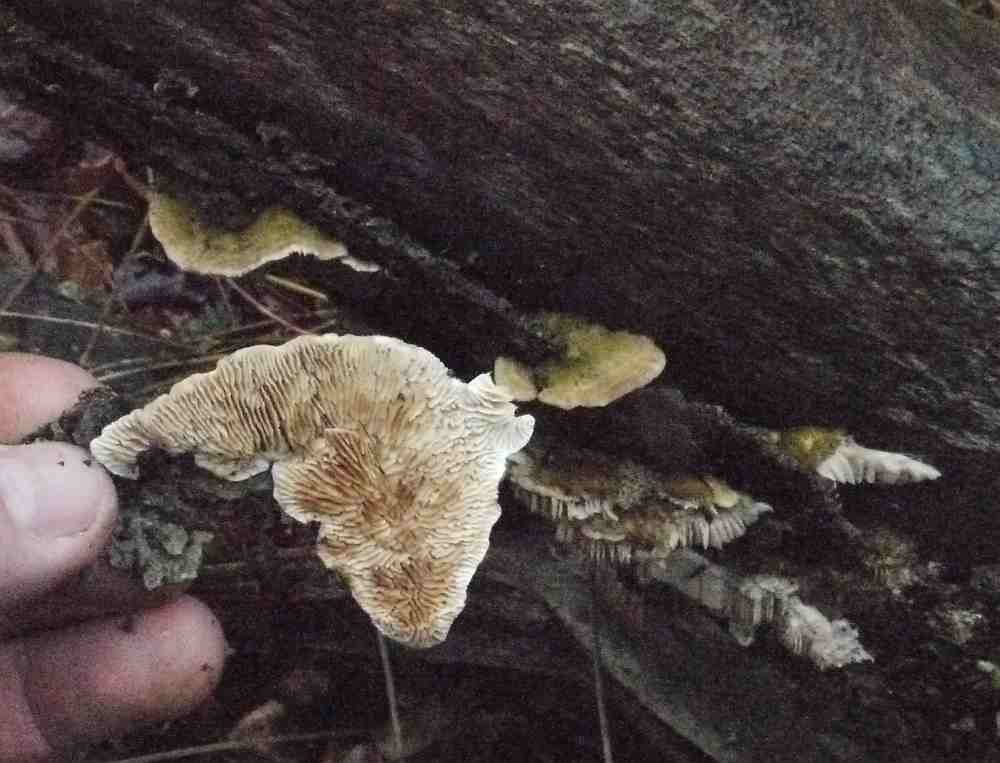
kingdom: Fungi
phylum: Basidiomycota
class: Agaricomycetes
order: Polyporales
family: Polyporaceae
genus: Lenzites
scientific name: Lenzites betulinus
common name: birke-læderporesvamp
